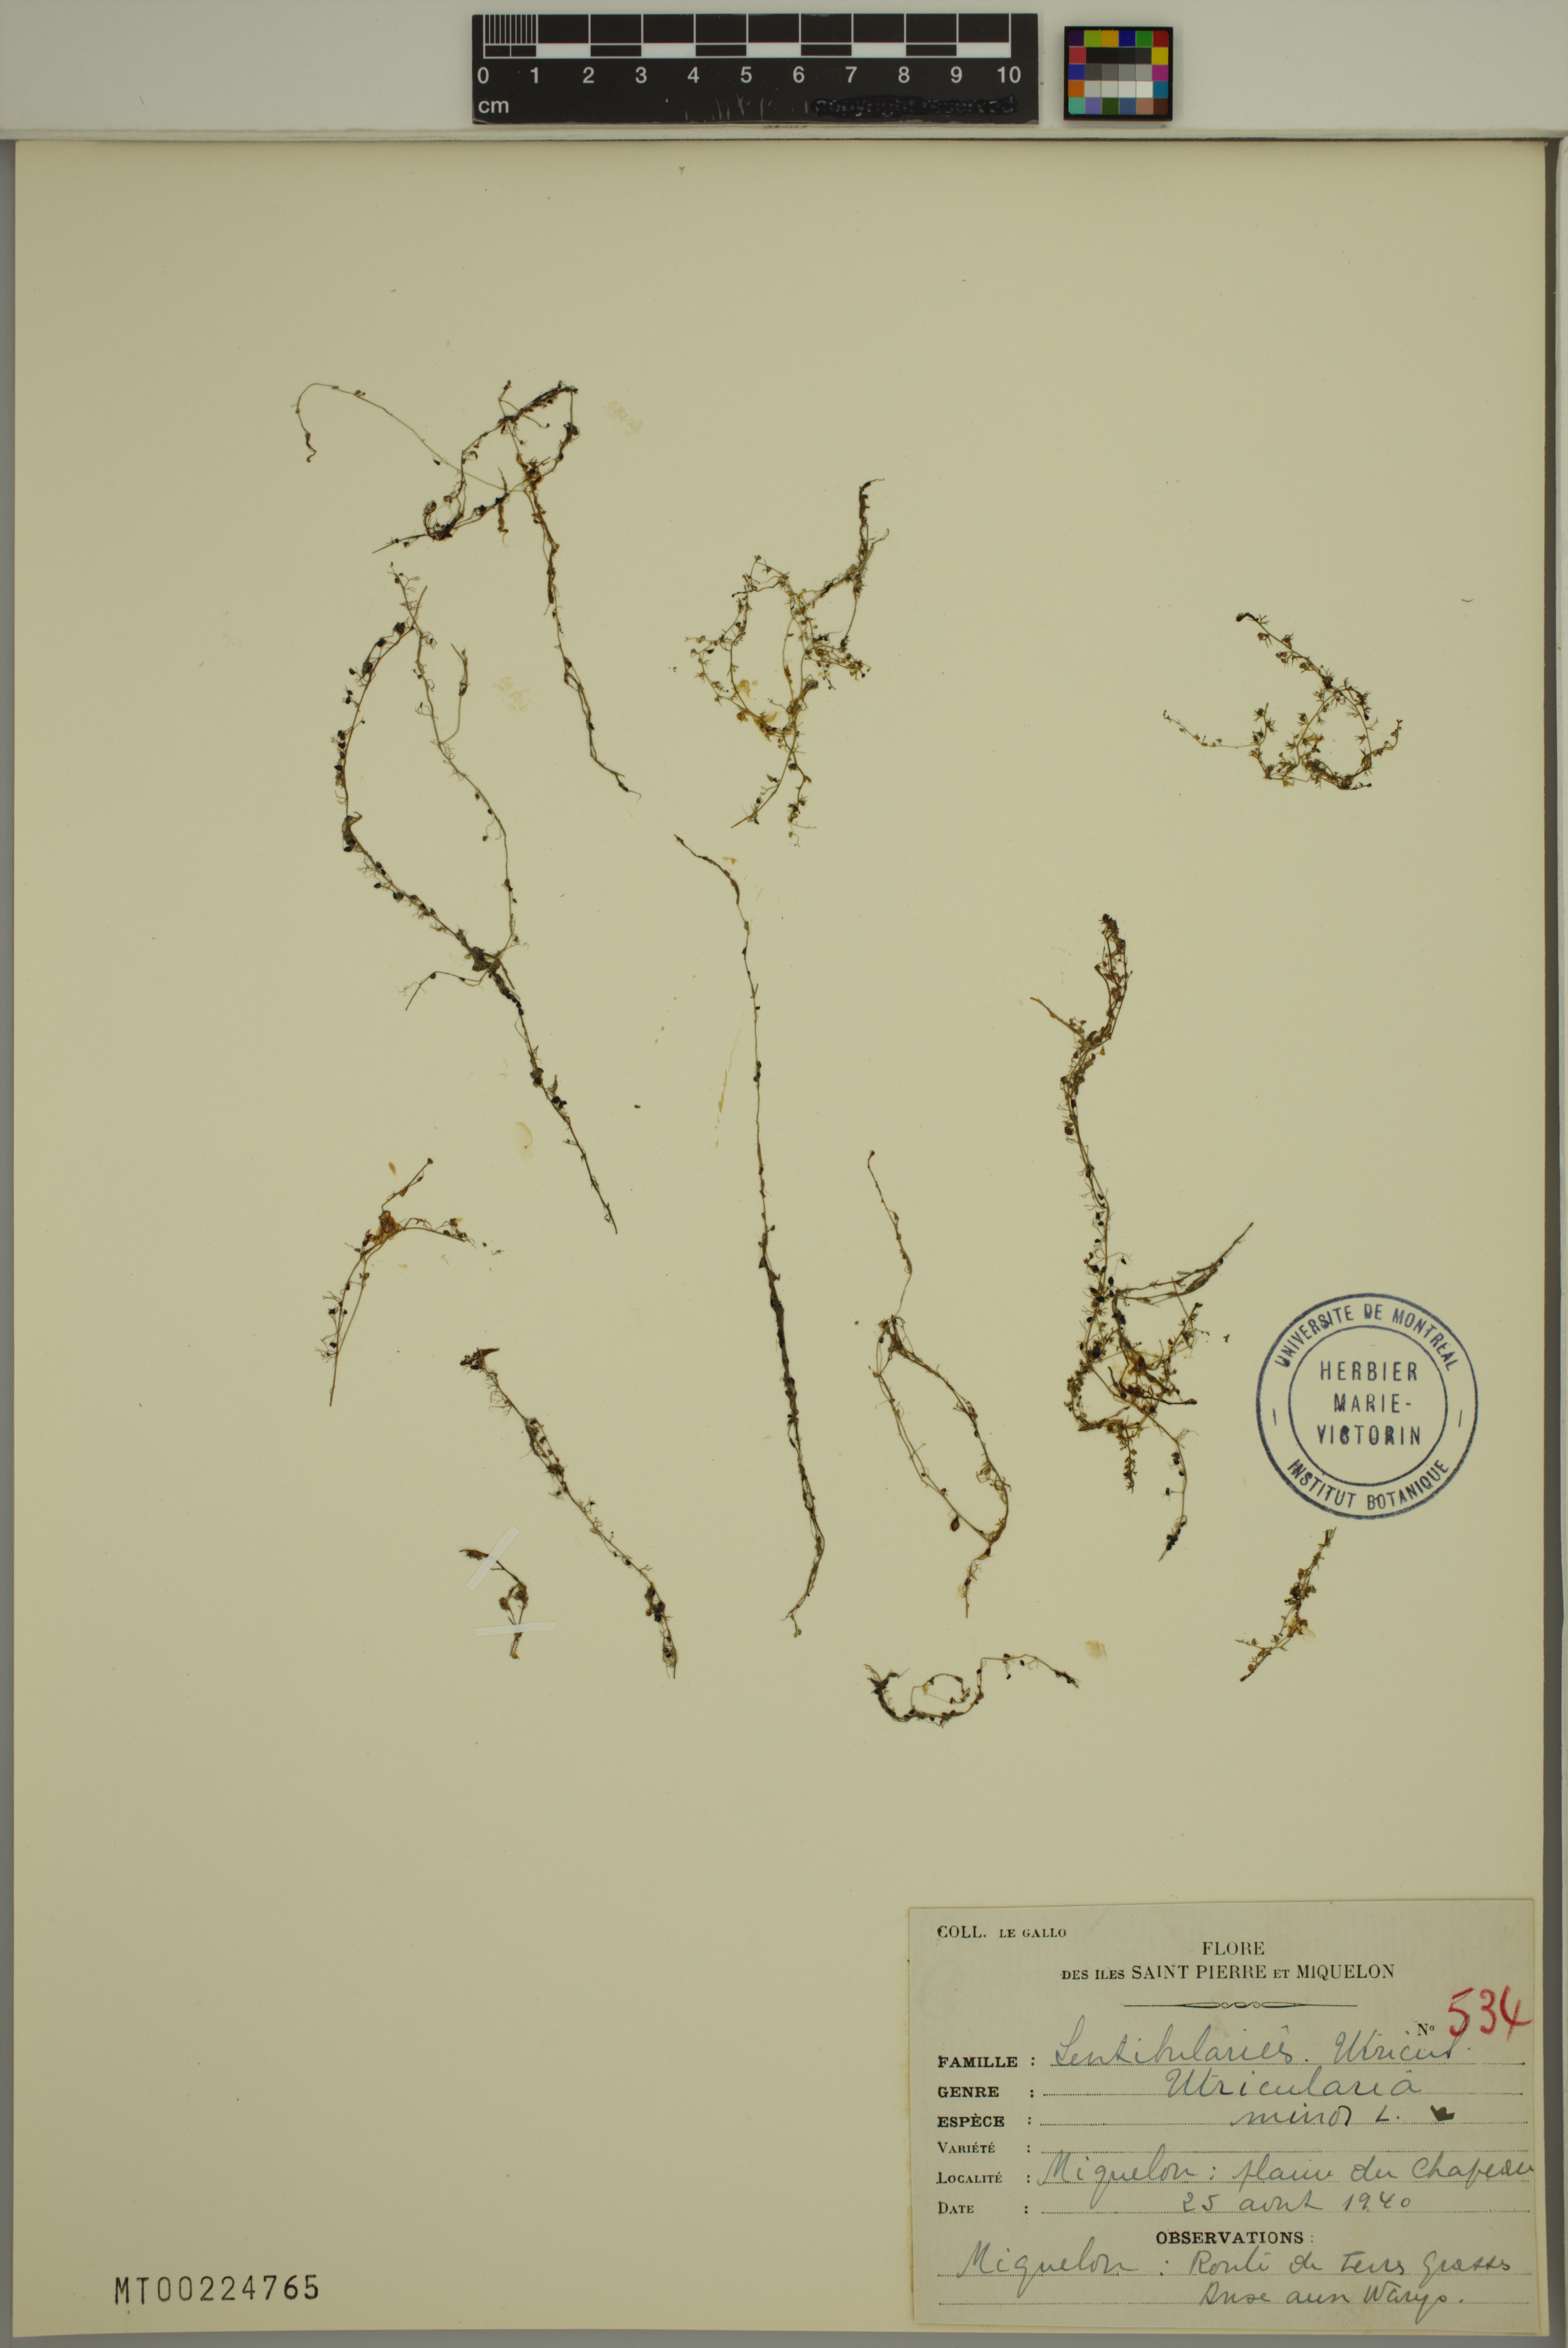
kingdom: Plantae
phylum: Tracheophyta
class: Magnoliopsida
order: Lamiales
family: Lentibulariaceae
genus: Utricularia
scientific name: Utricularia minor
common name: Lesser bladderwort
